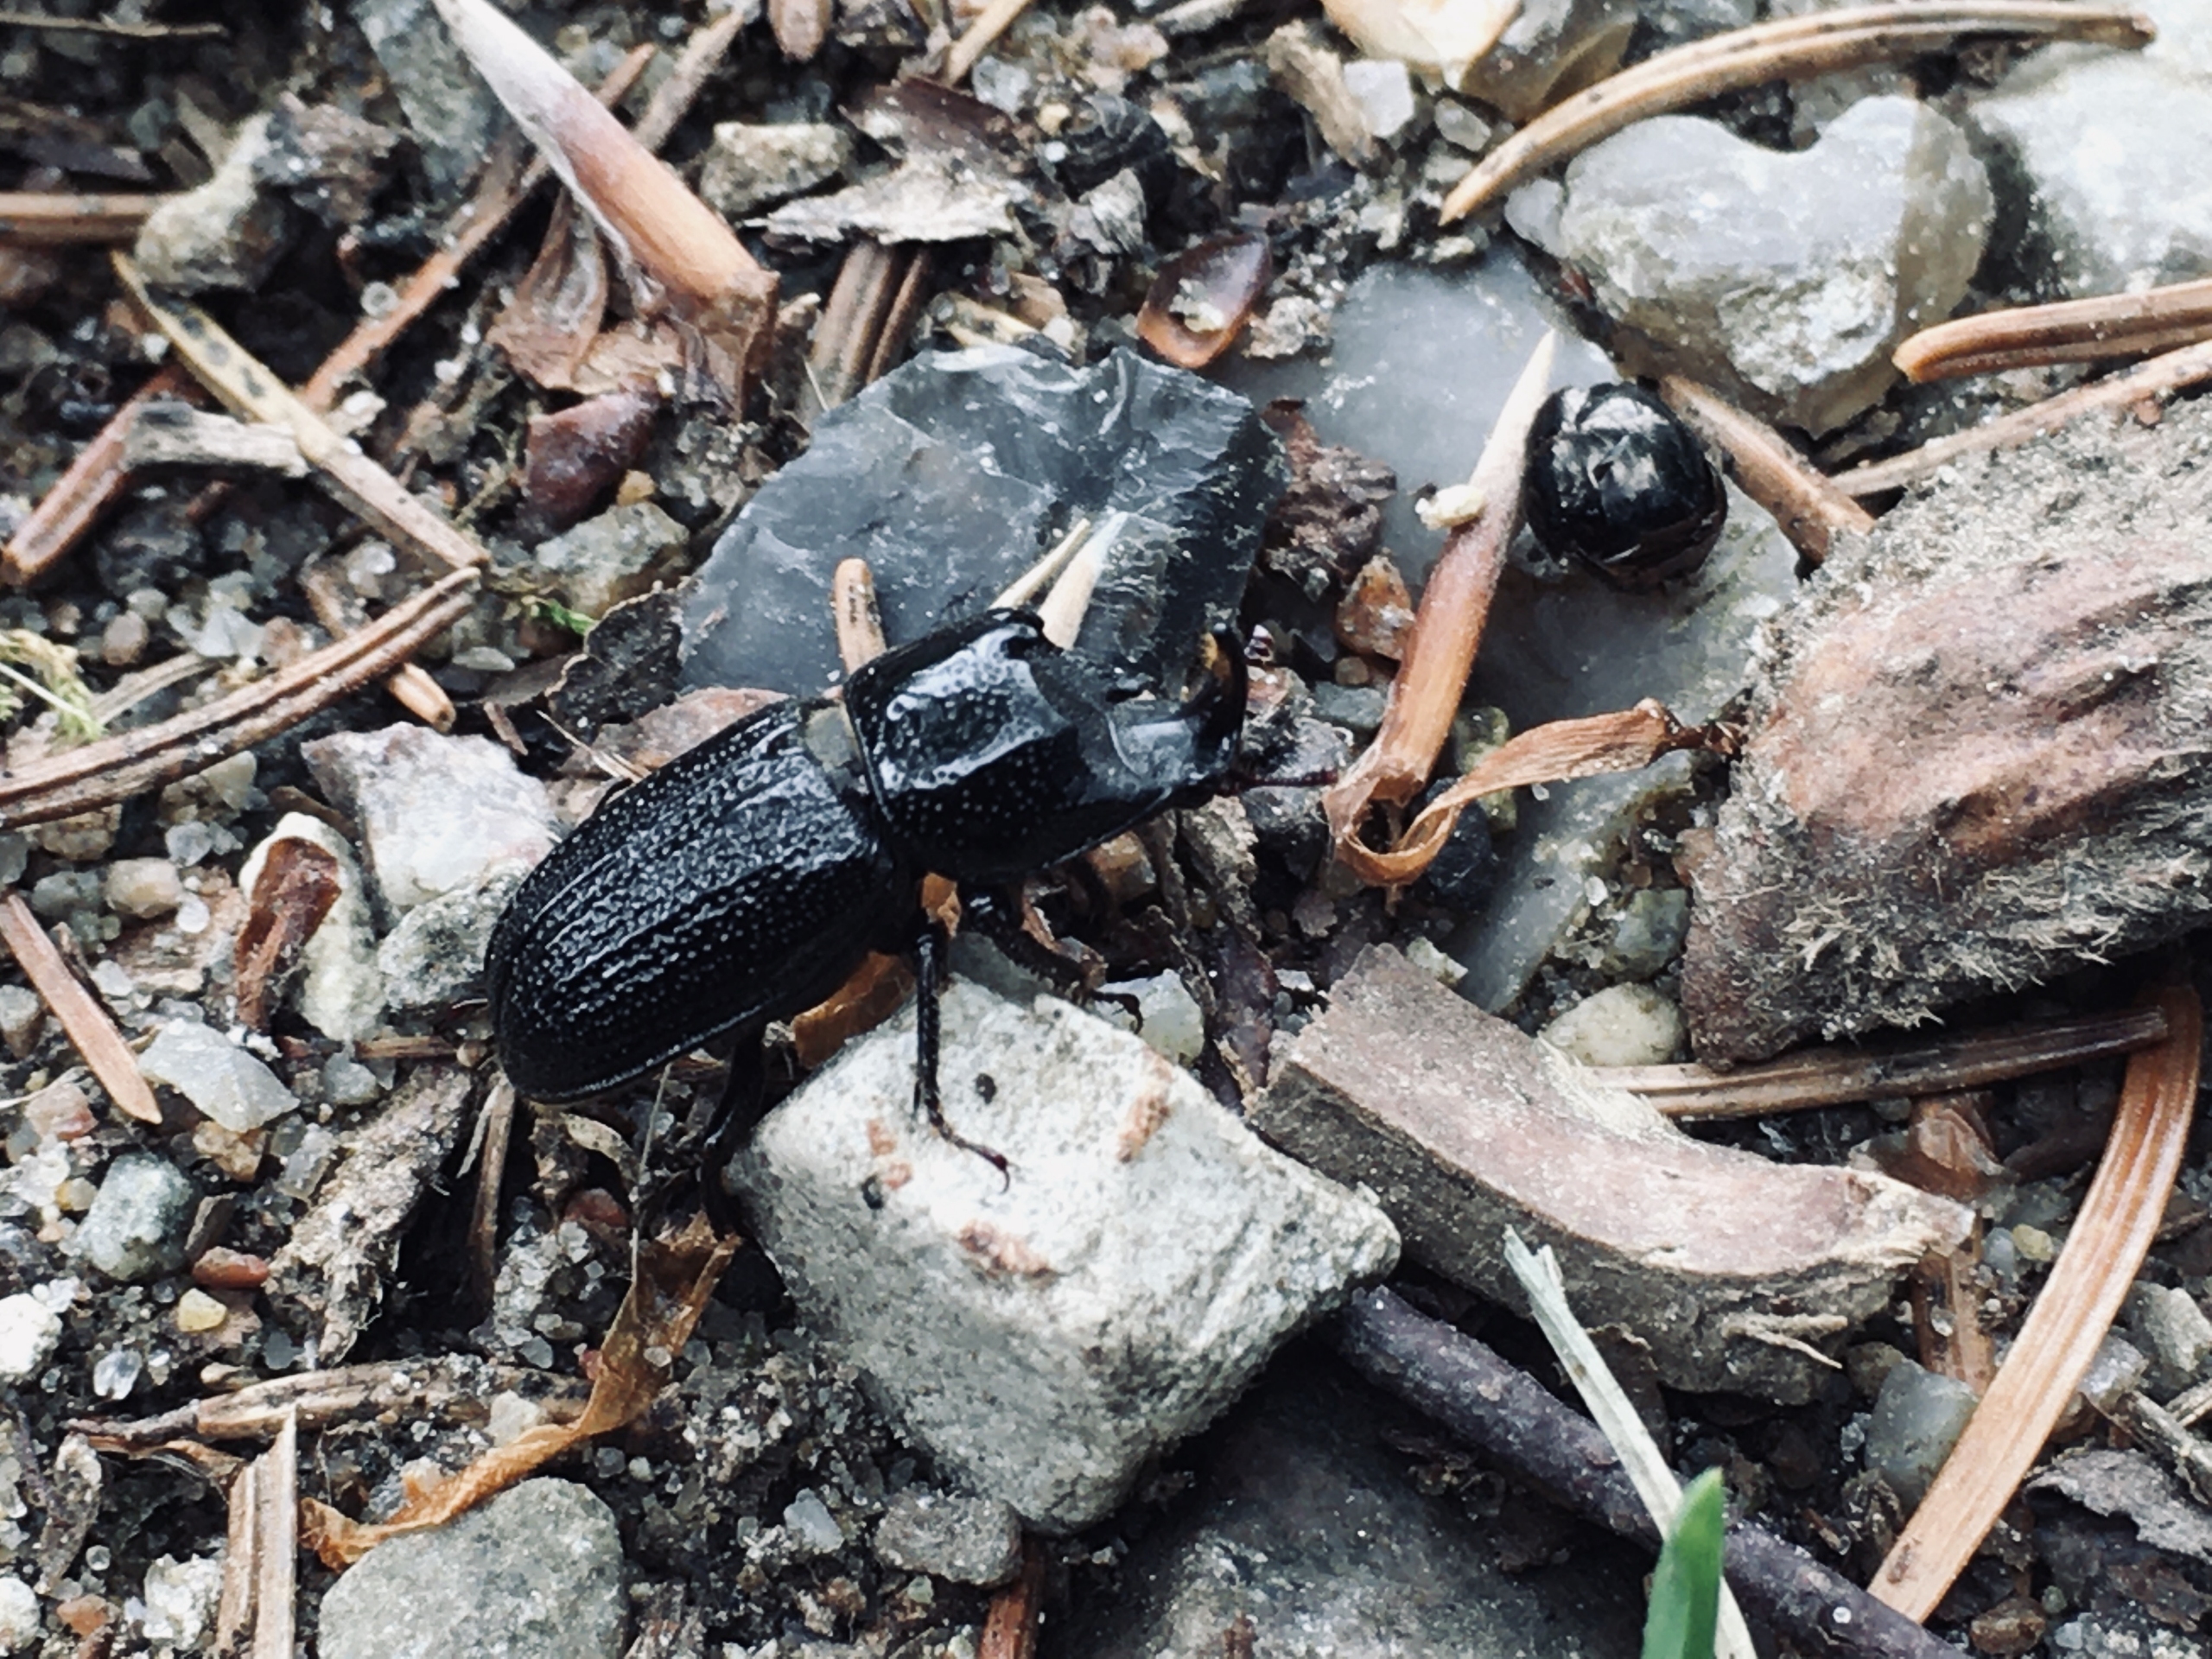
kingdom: Animalia
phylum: Arthropoda
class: Insecta
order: Coleoptera
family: Lucanidae
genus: Sinodendron
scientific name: Sinodendron cylindricum
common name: Valsehjort
